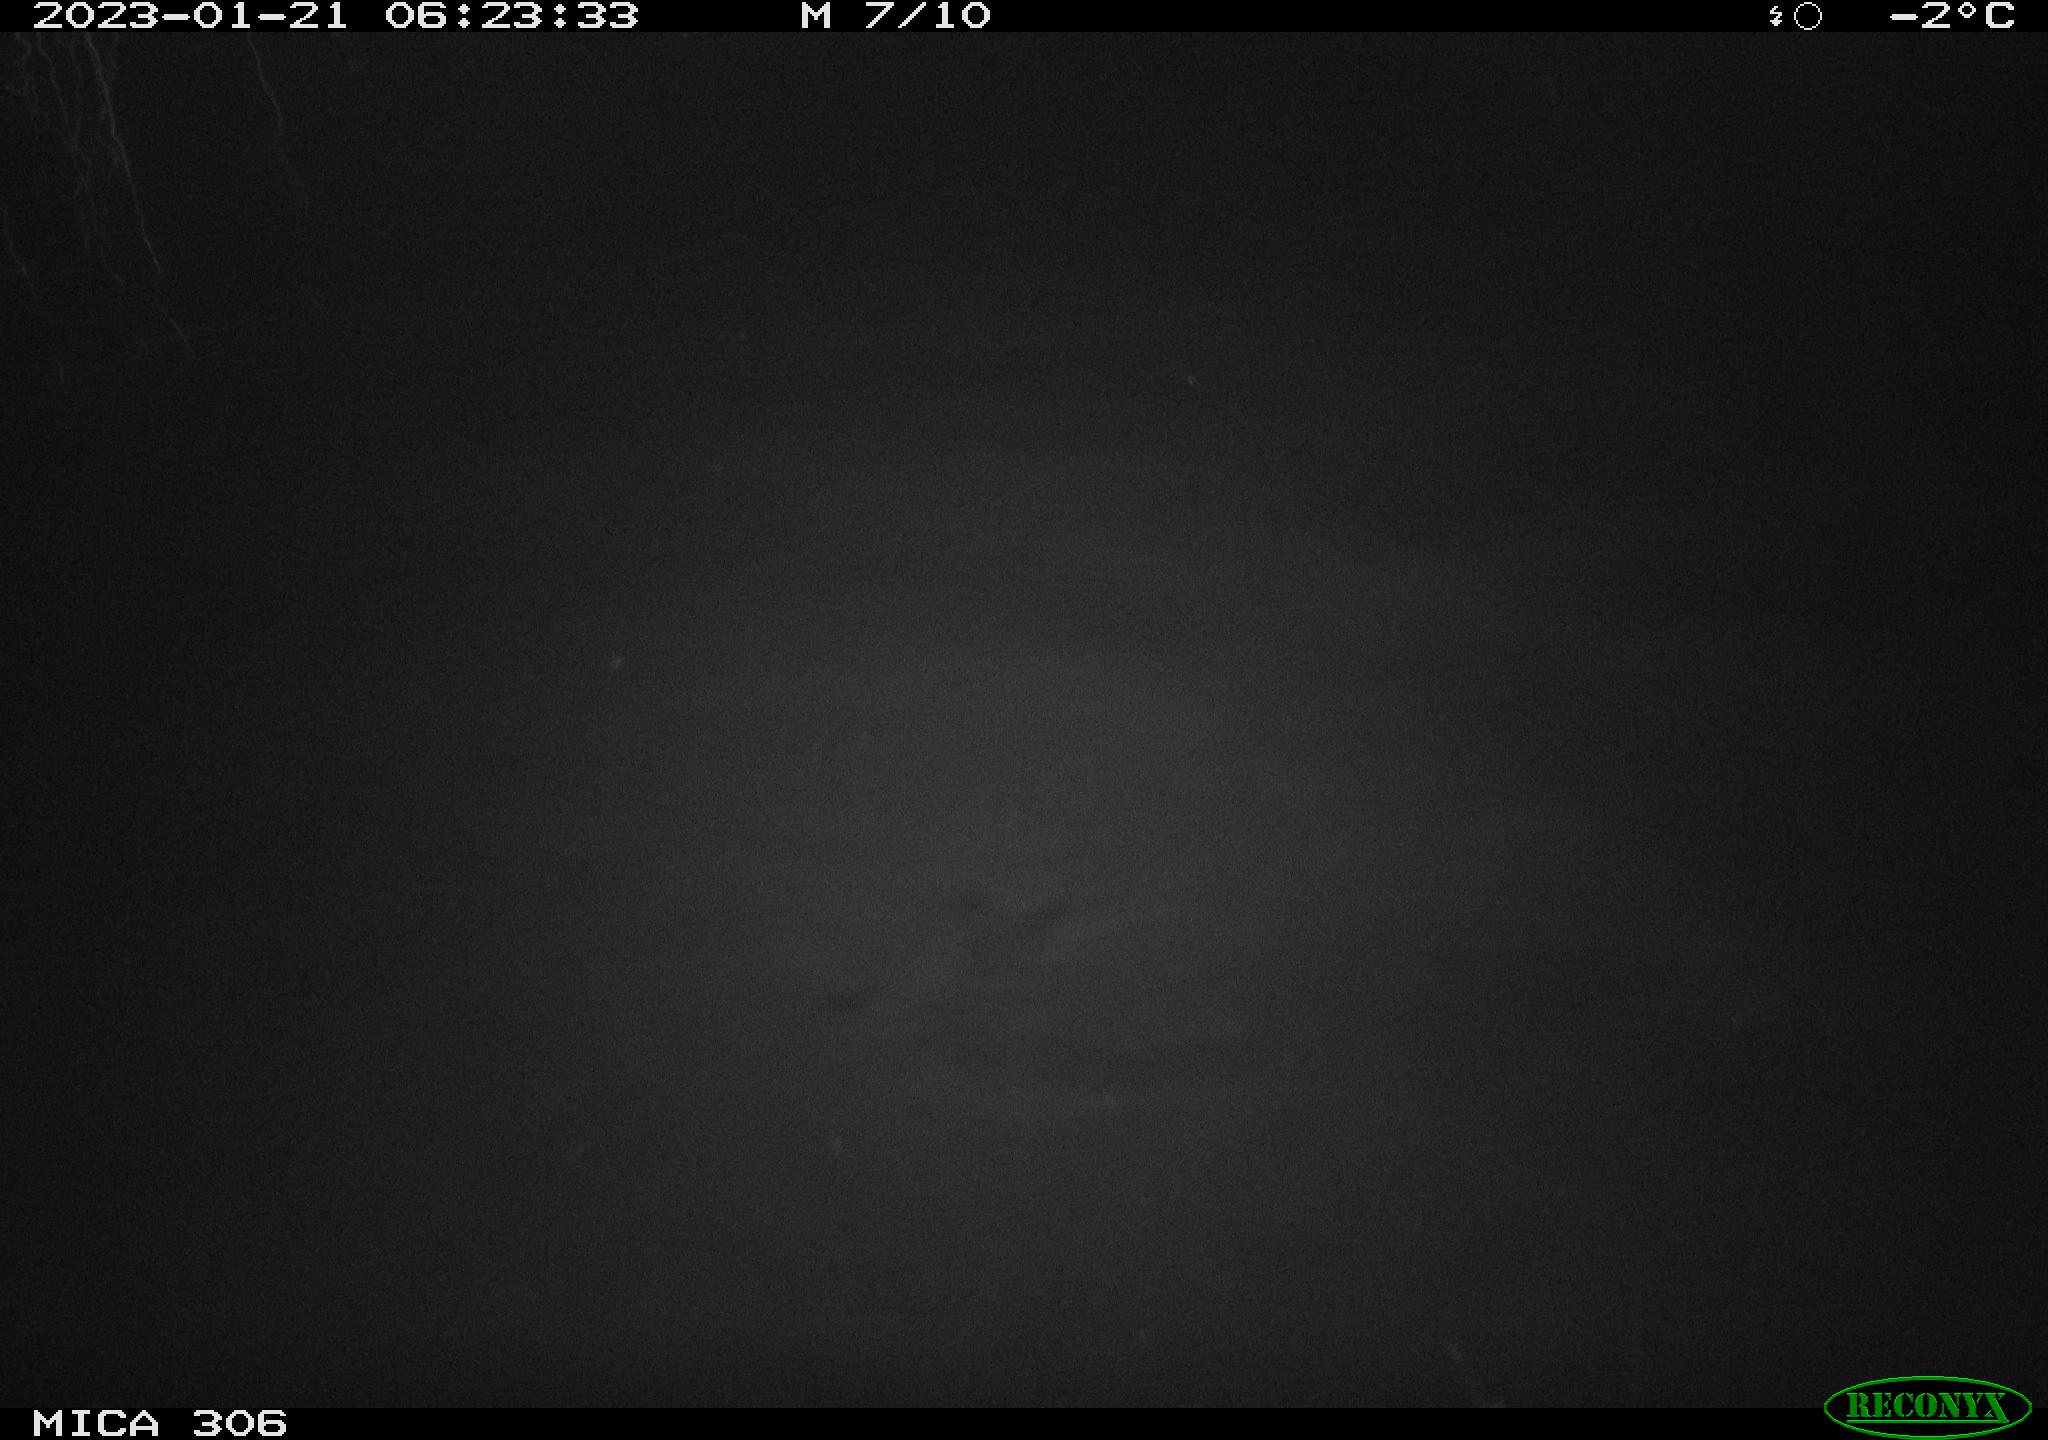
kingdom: Animalia
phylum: Chordata
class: Mammalia
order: Rodentia
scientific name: Rodentia
